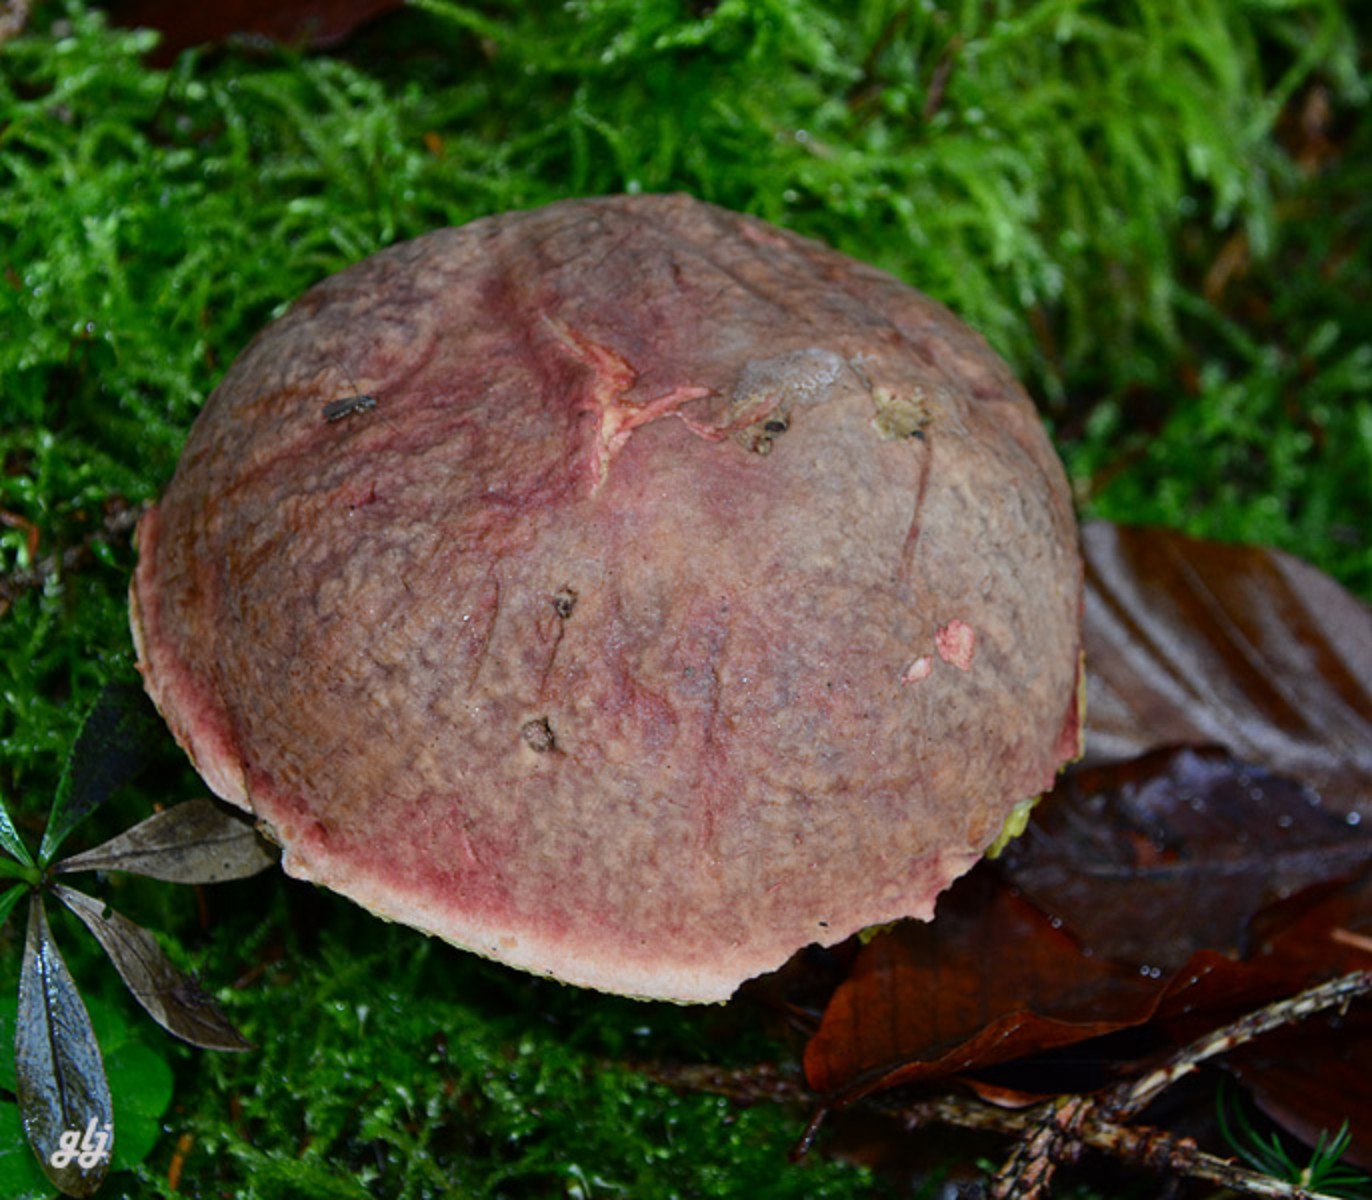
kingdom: Fungi
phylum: Basidiomycota
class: Agaricomycetes
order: Boletales
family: Boletaceae
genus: Xerocomellus
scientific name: Xerocomellus pruinatus
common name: dugget rørhat
